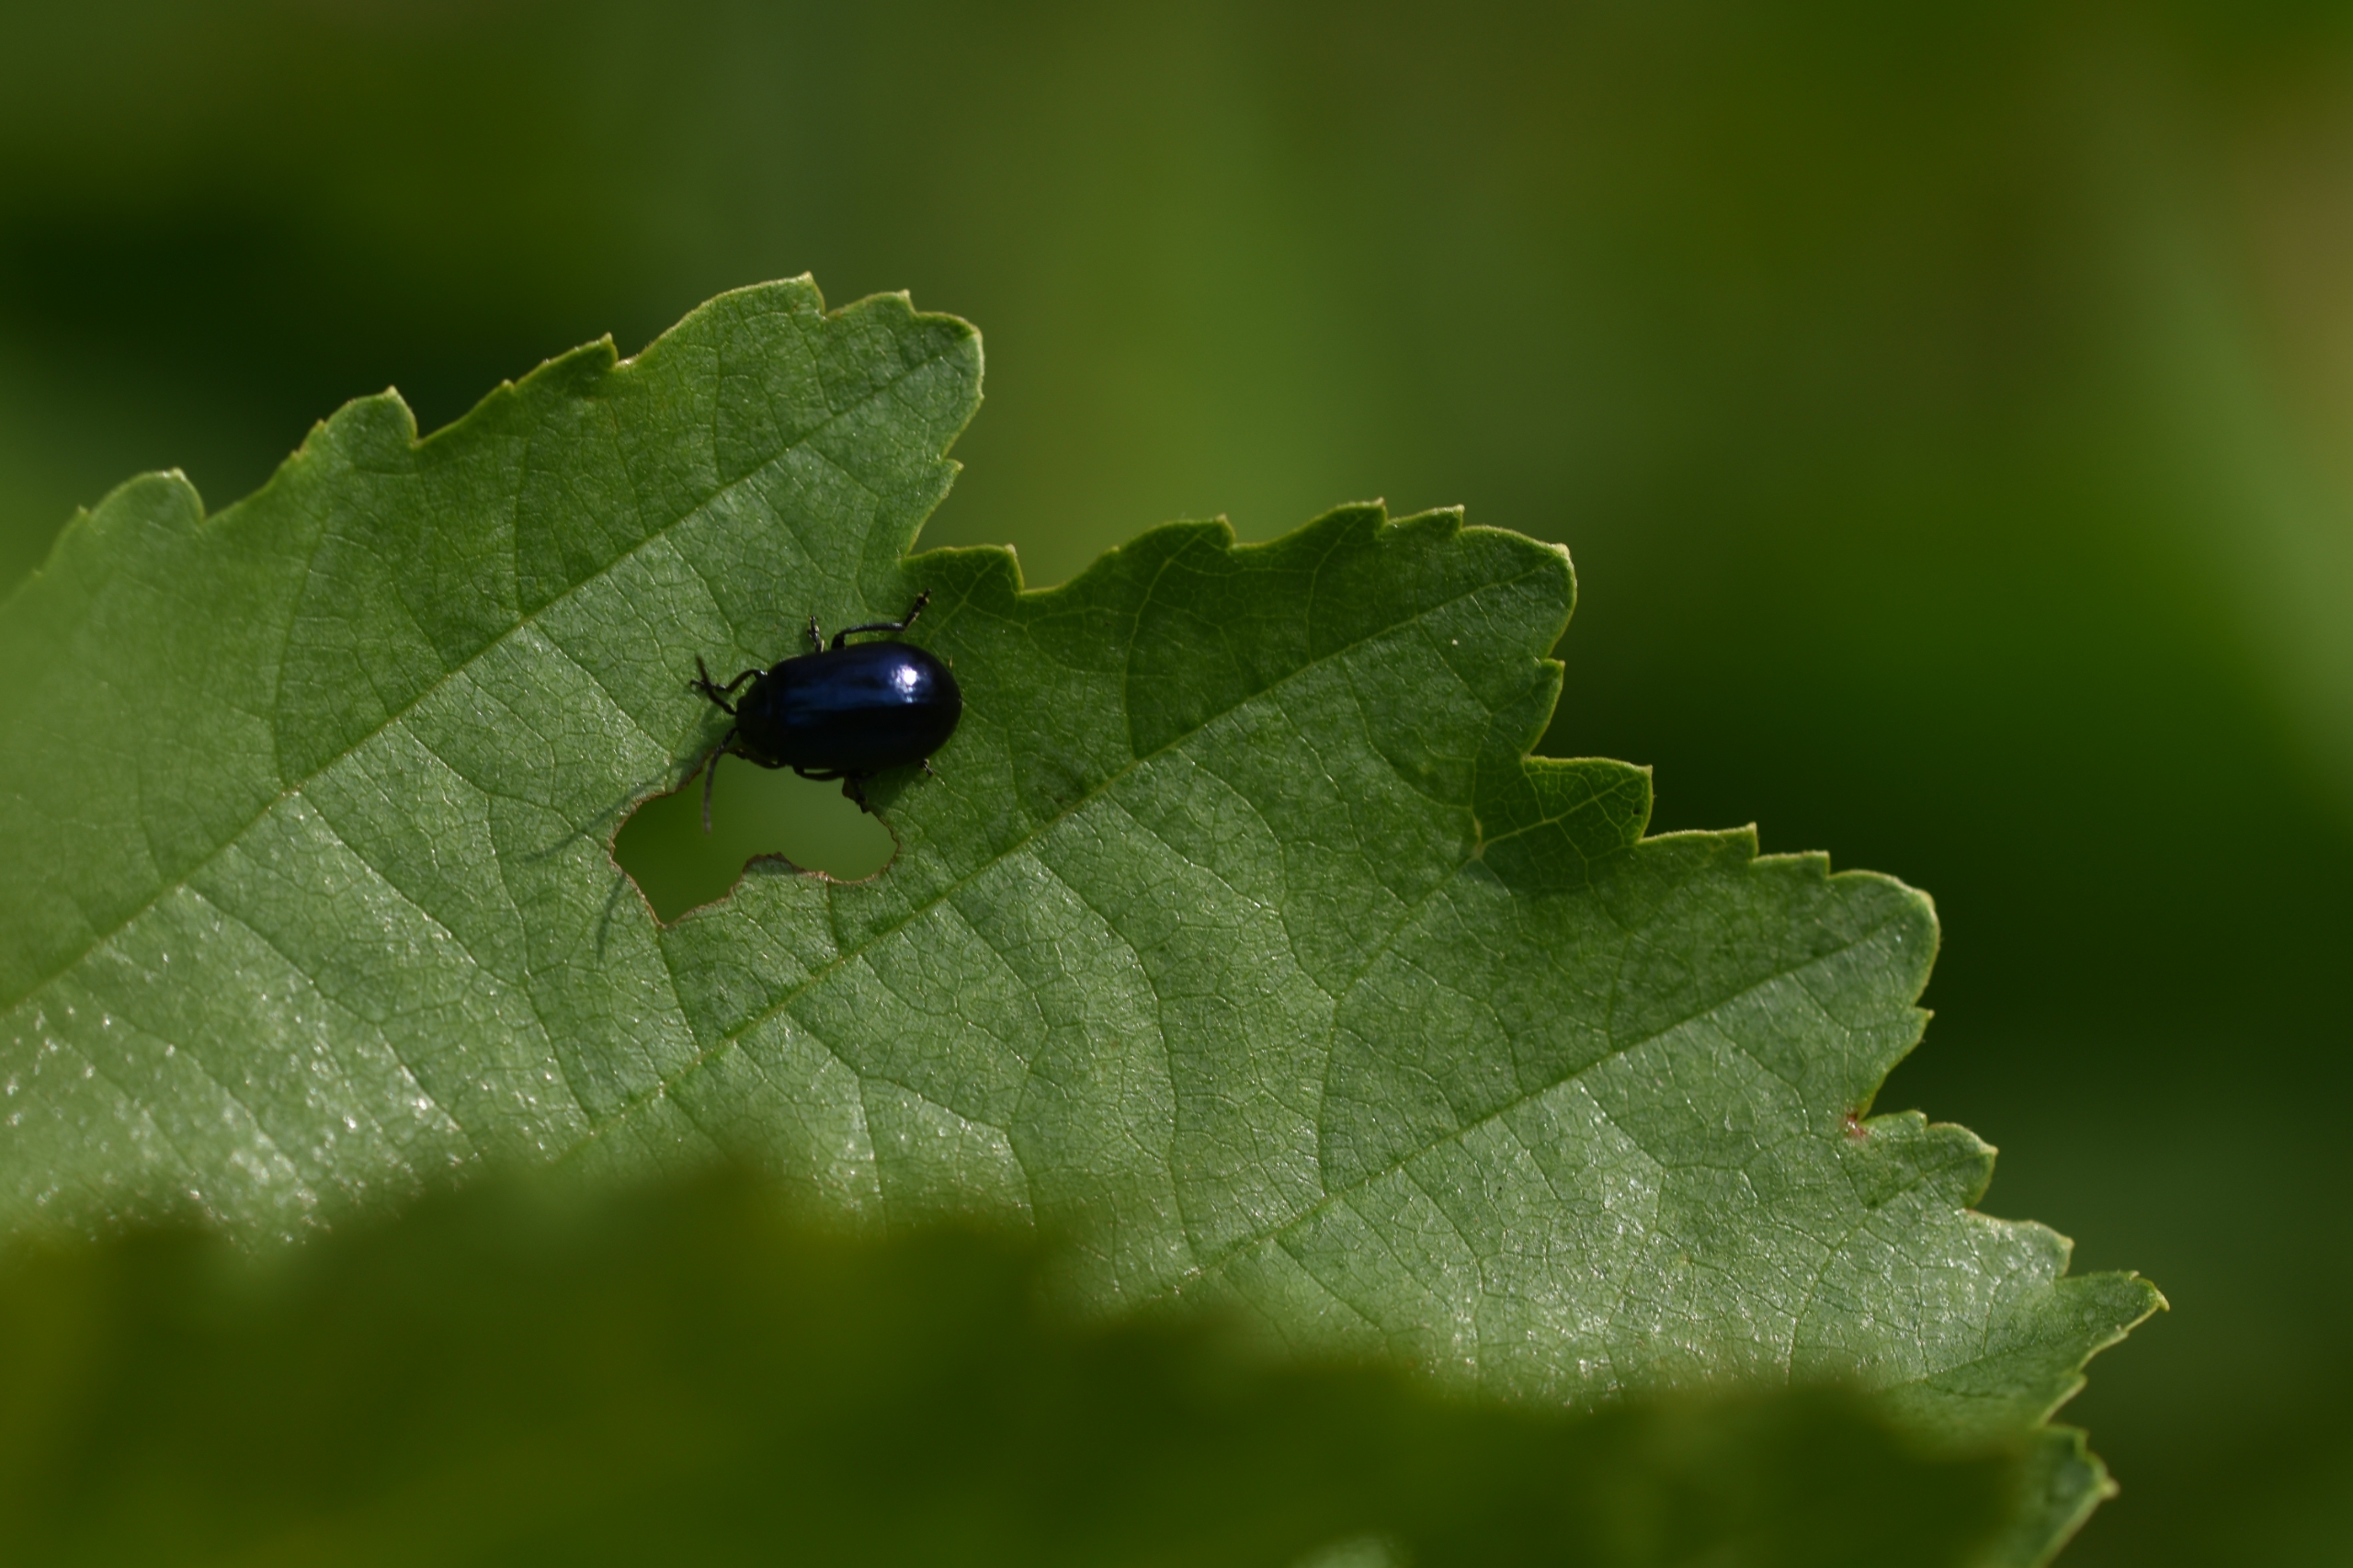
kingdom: Animalia
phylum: Arthropoda
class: Insecta
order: Coleoptera
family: Chrysomelidae
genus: Agelastica
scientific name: Agelastica alni
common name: Ellebladbille
